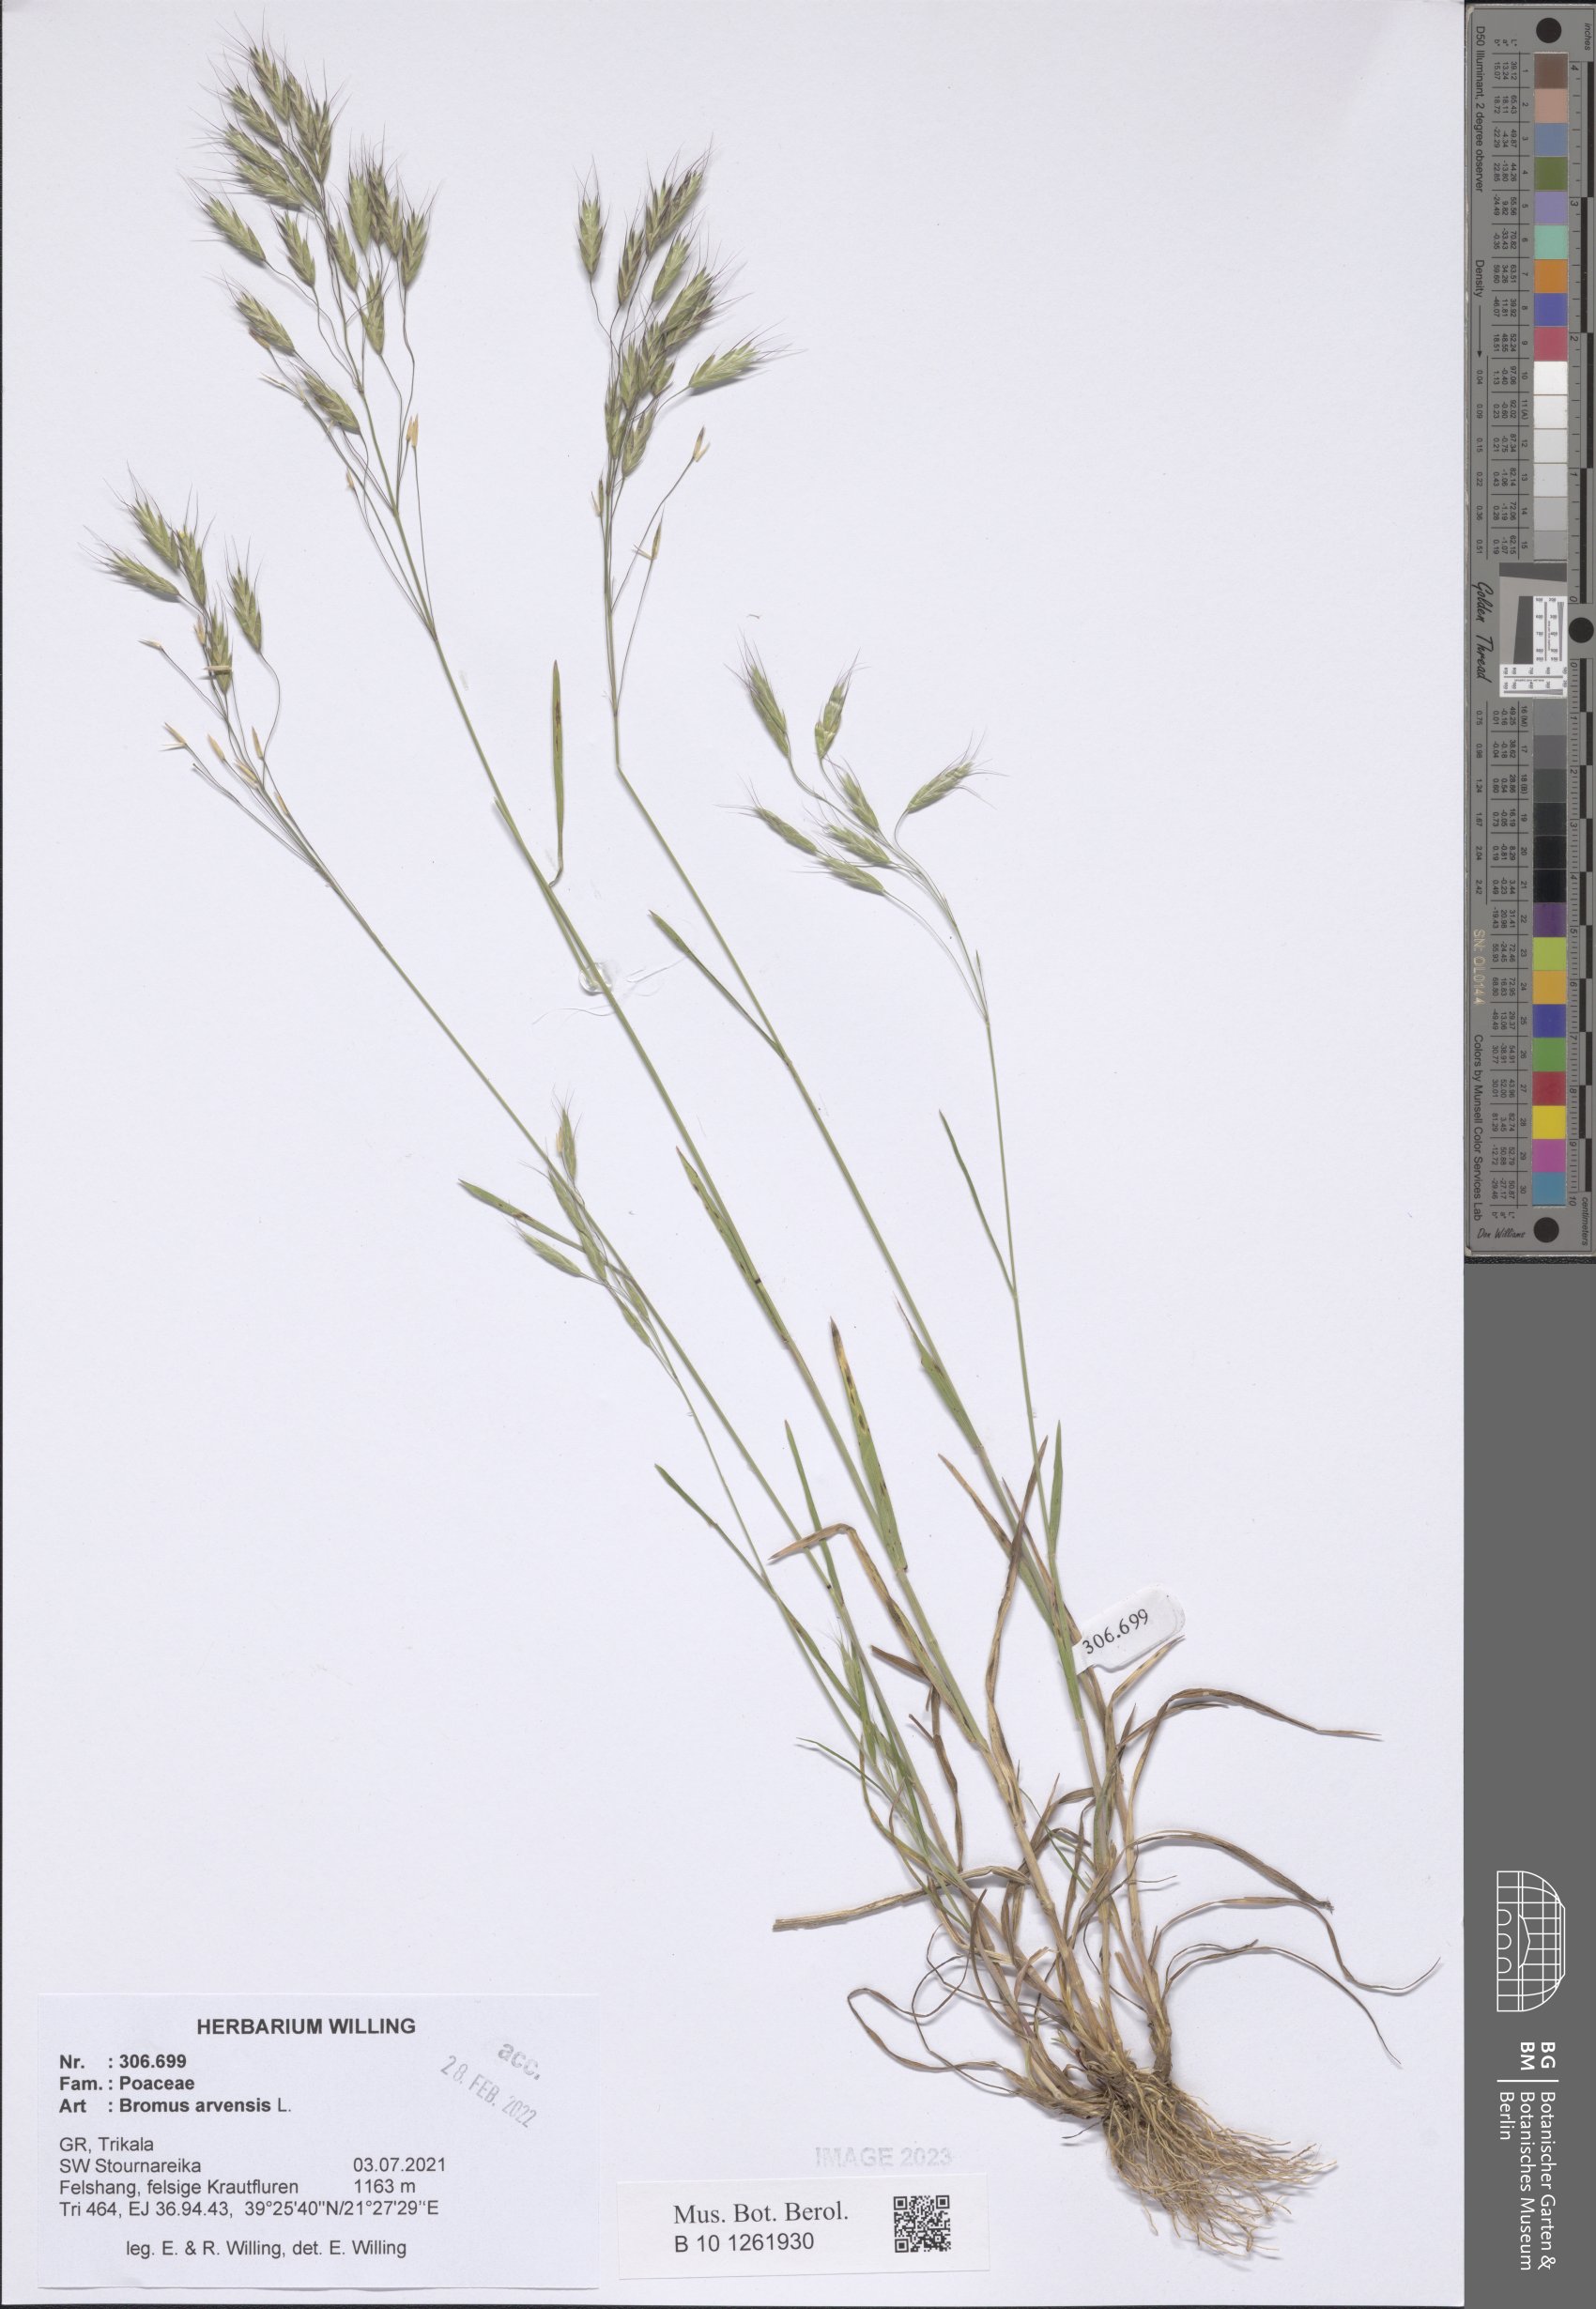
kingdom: Plantae
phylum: Tracheophyta
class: Liliopsida
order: Poales
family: Poaceae
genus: Bromus
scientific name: Bromus arvensis
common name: Field brome
